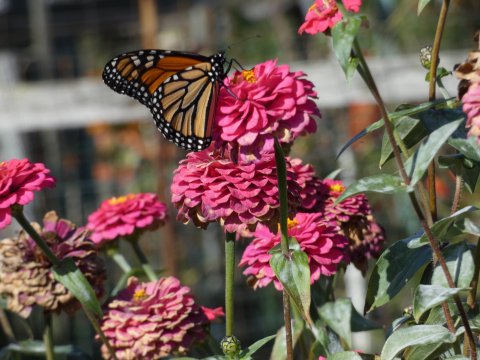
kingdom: Animalia
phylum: Arthropoda
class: Insecta
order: Lepidoptera
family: Nymphalidae
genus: Danaus
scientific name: Danaus plexippus
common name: Monarch
